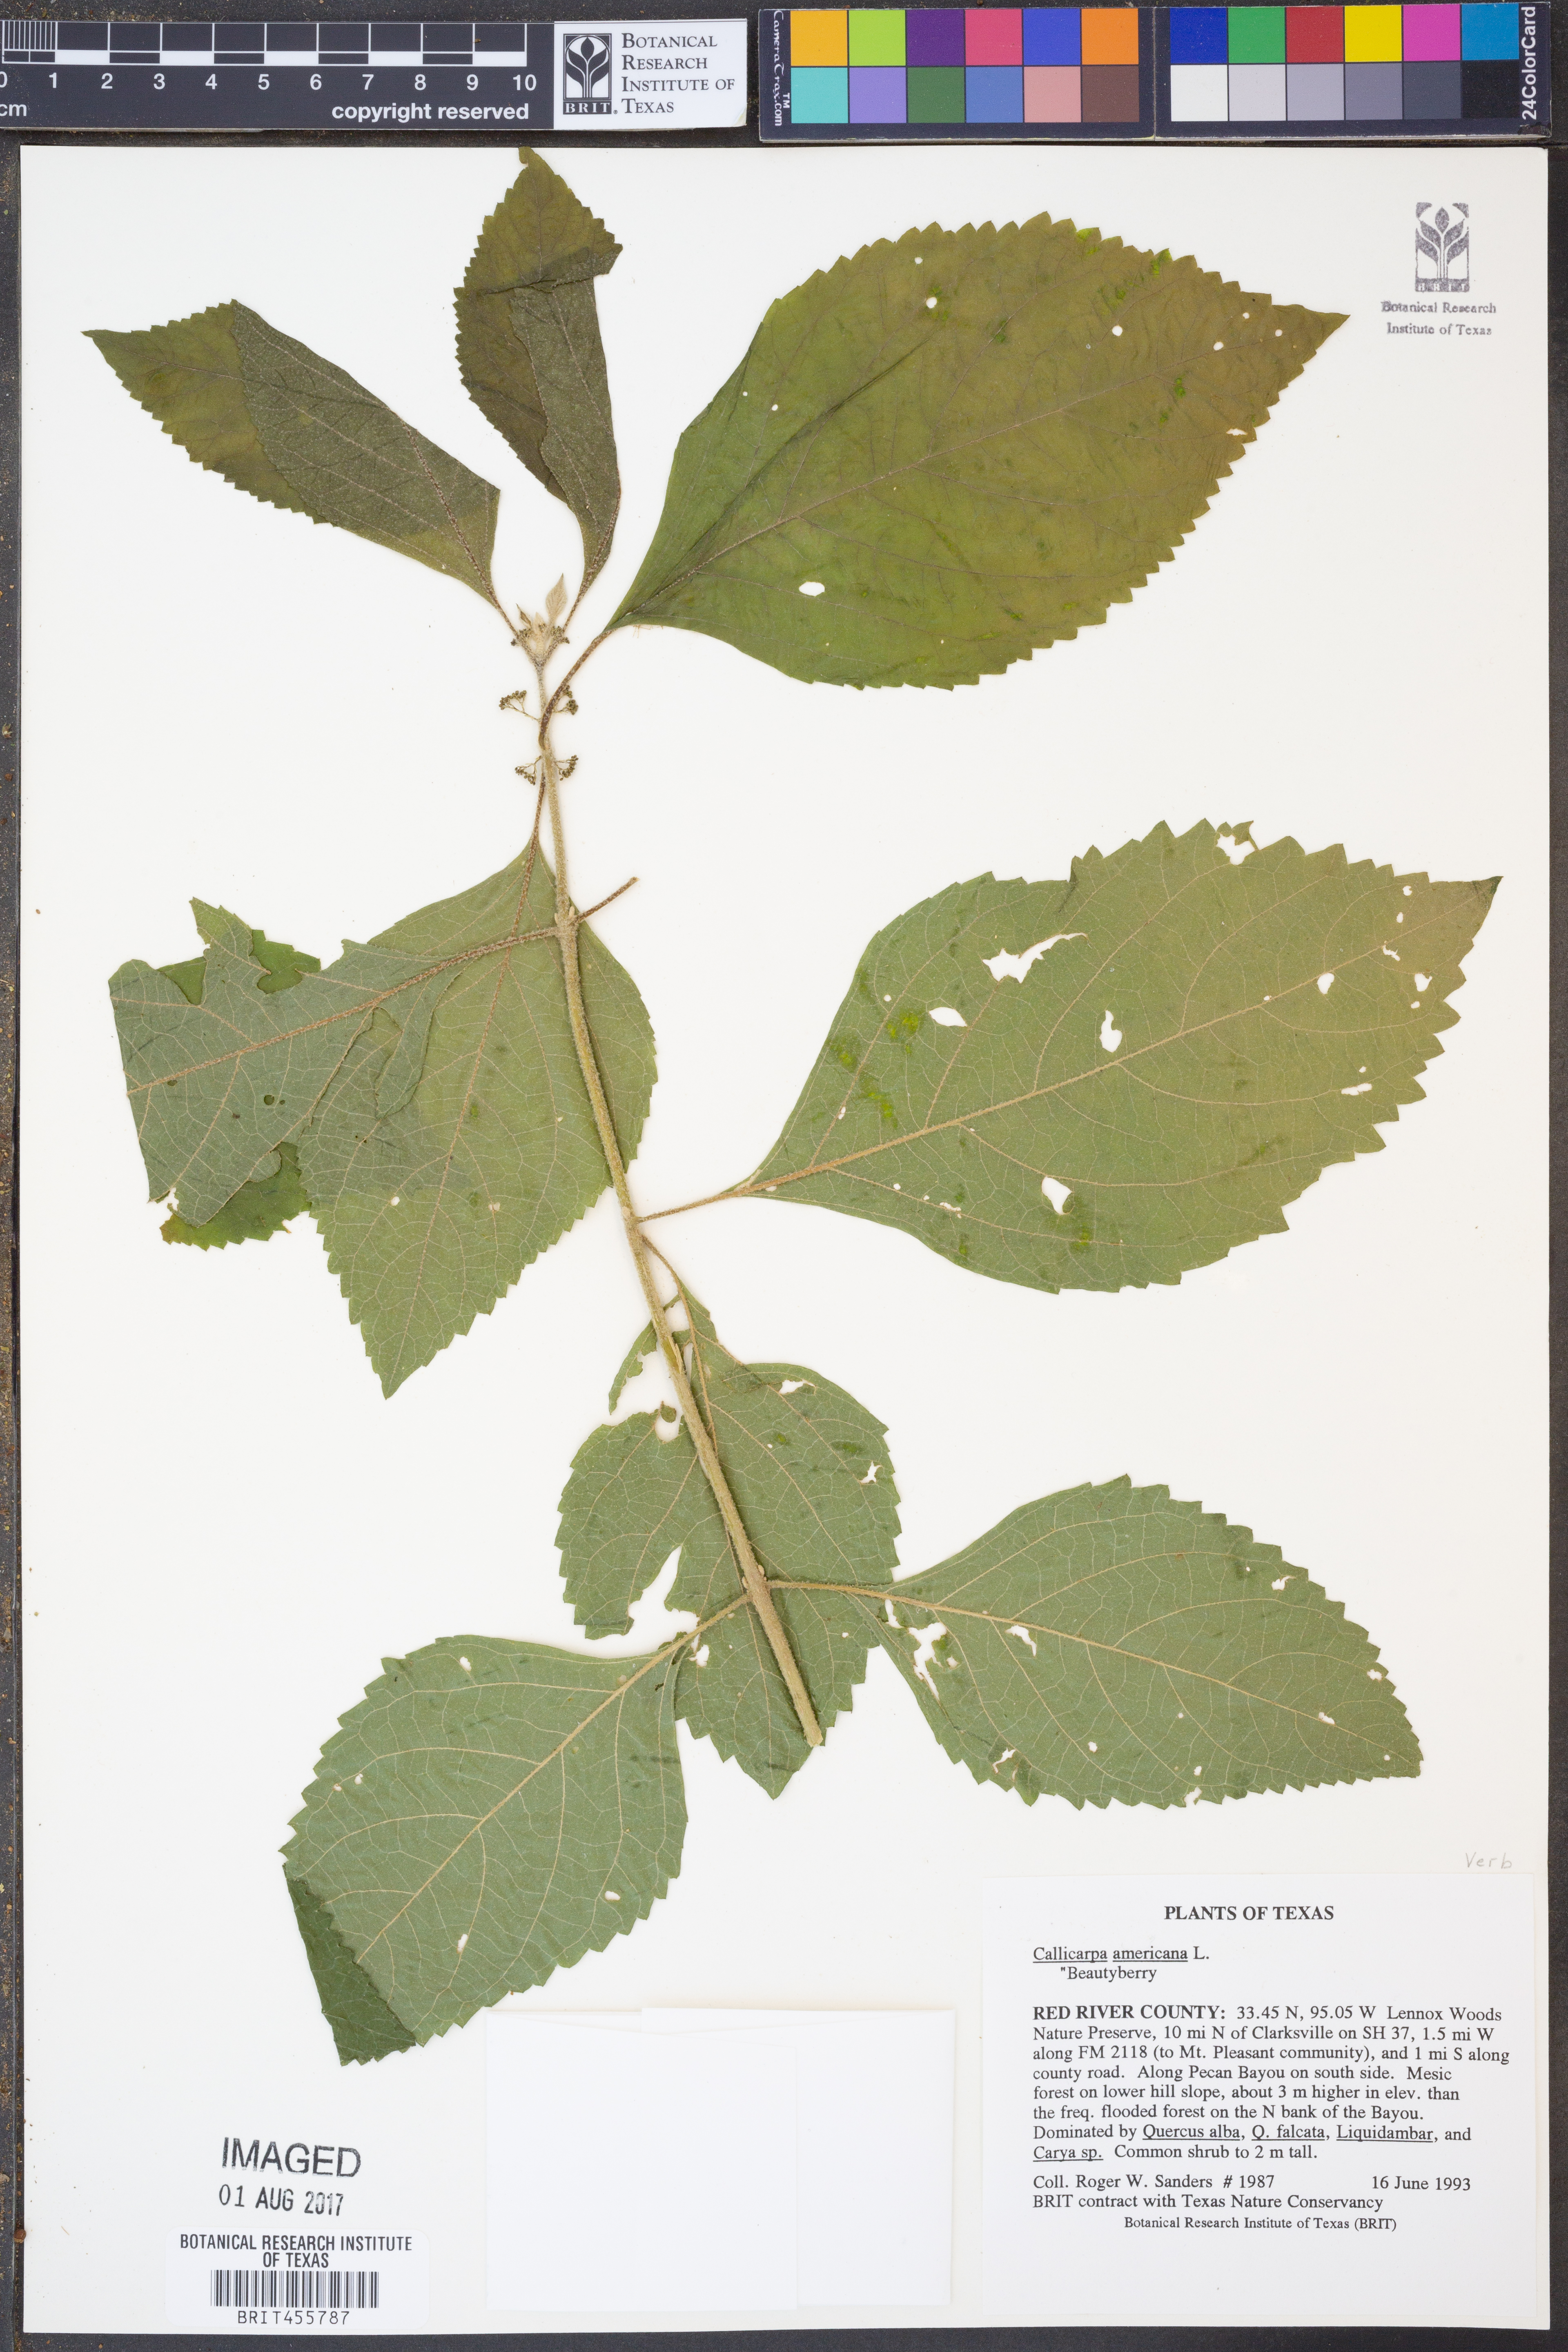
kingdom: Plantae
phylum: Tracheophyta
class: Magnoliopsida
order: Lamiales
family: Lamiaceae
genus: Callicarpa
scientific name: Callicarpa americana
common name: American beautyberry
